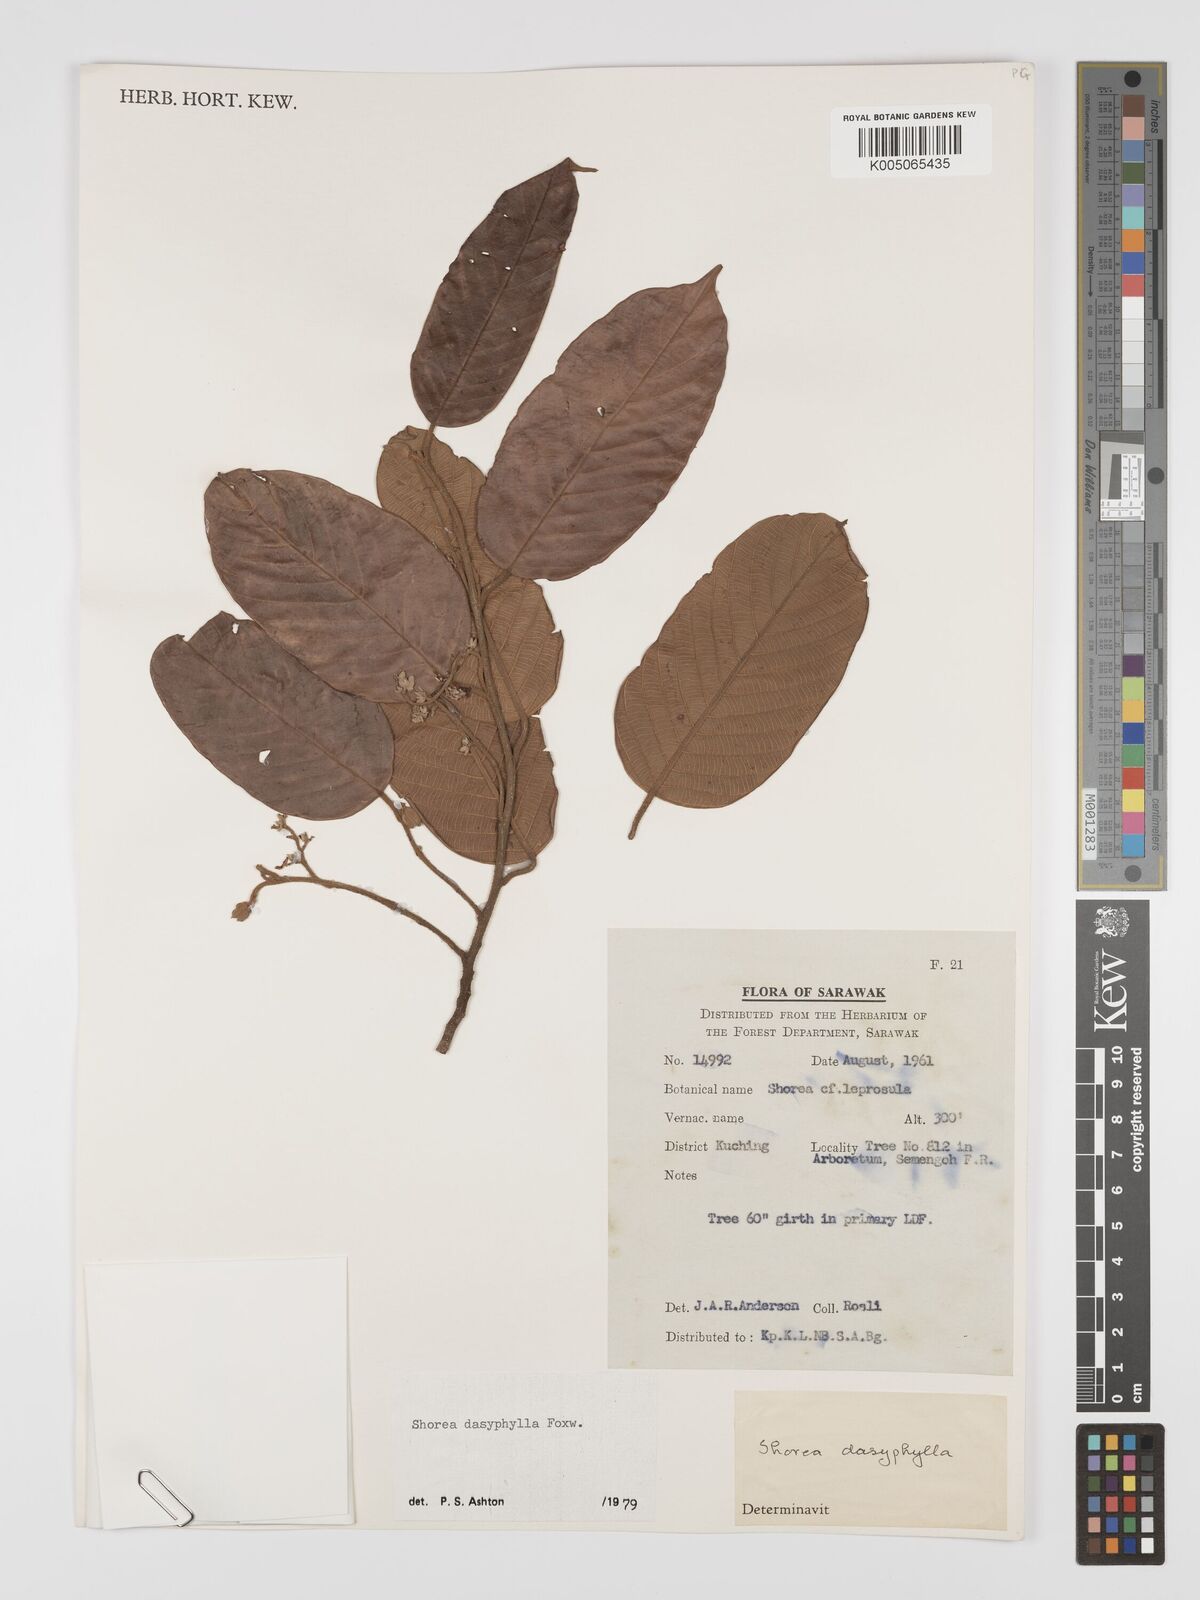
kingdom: Plantae
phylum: Tracheophyta
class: Magnoliopsida
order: Malvales
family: Dipterocarpaceae
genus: Shorea
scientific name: Shorea dasyphylla
